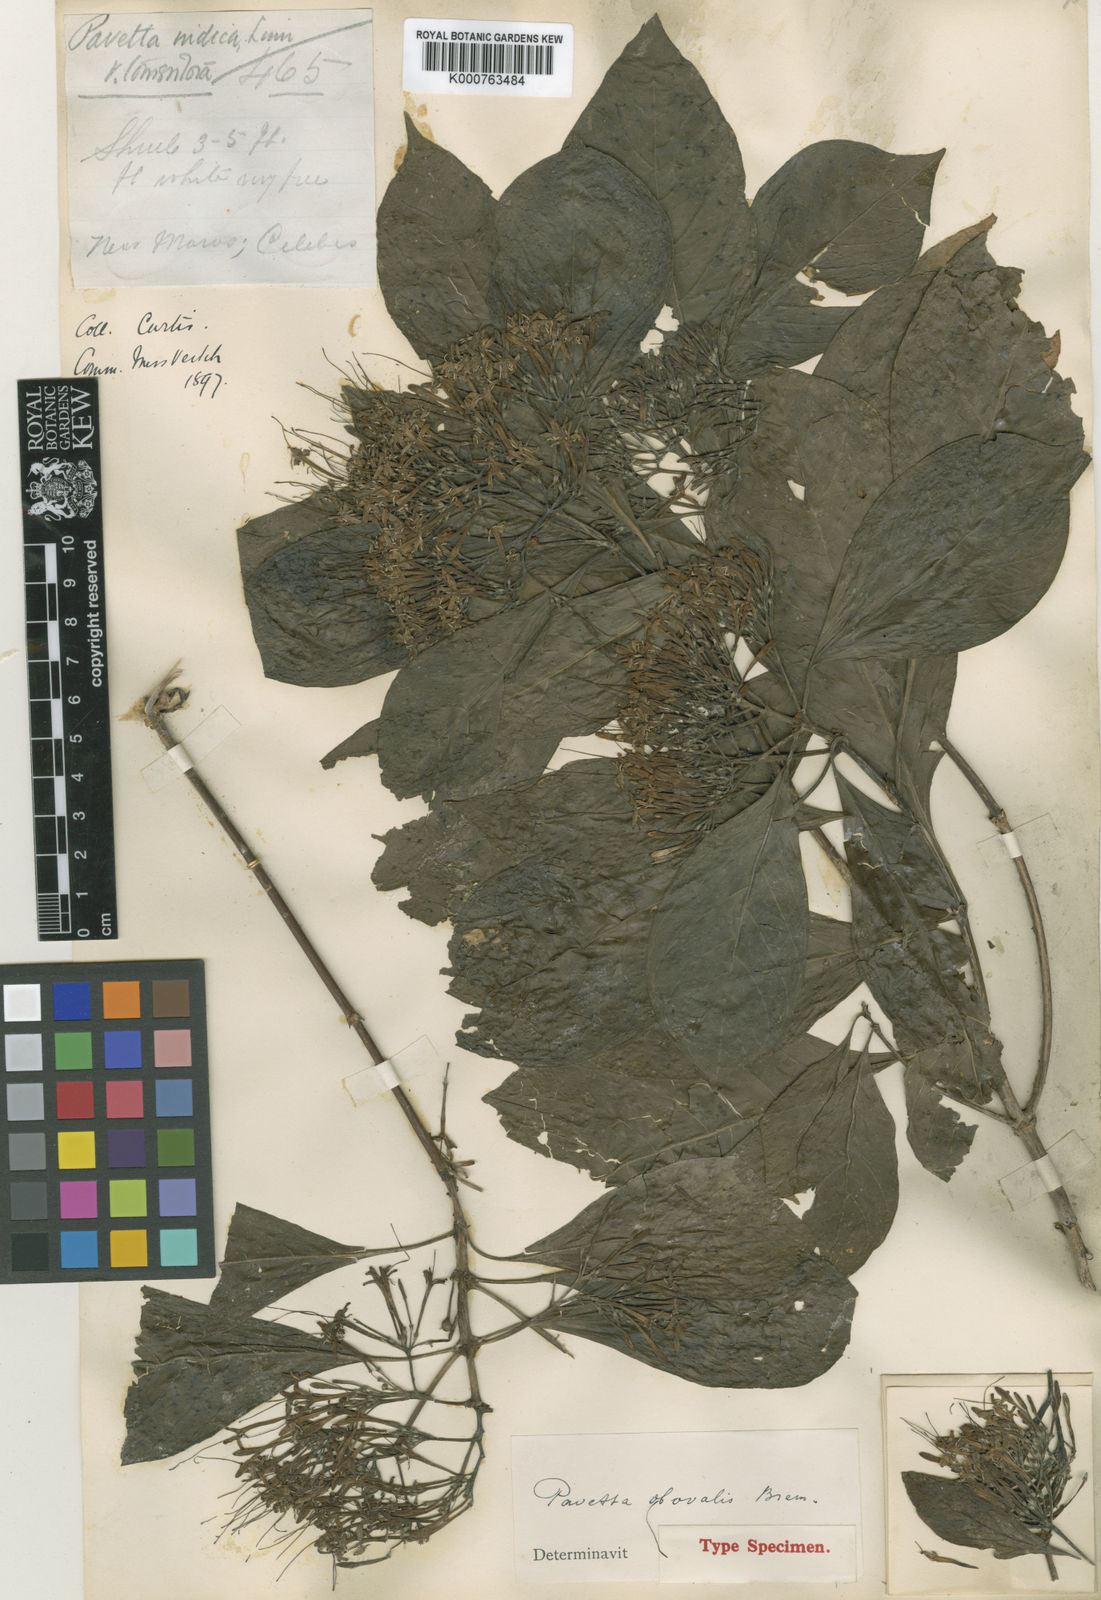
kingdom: Plantae
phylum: Tracheophyta
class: Magnoliopsida
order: Gentianales
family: Rubiaceae
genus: Pavetta
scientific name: Pavetta obovalis
